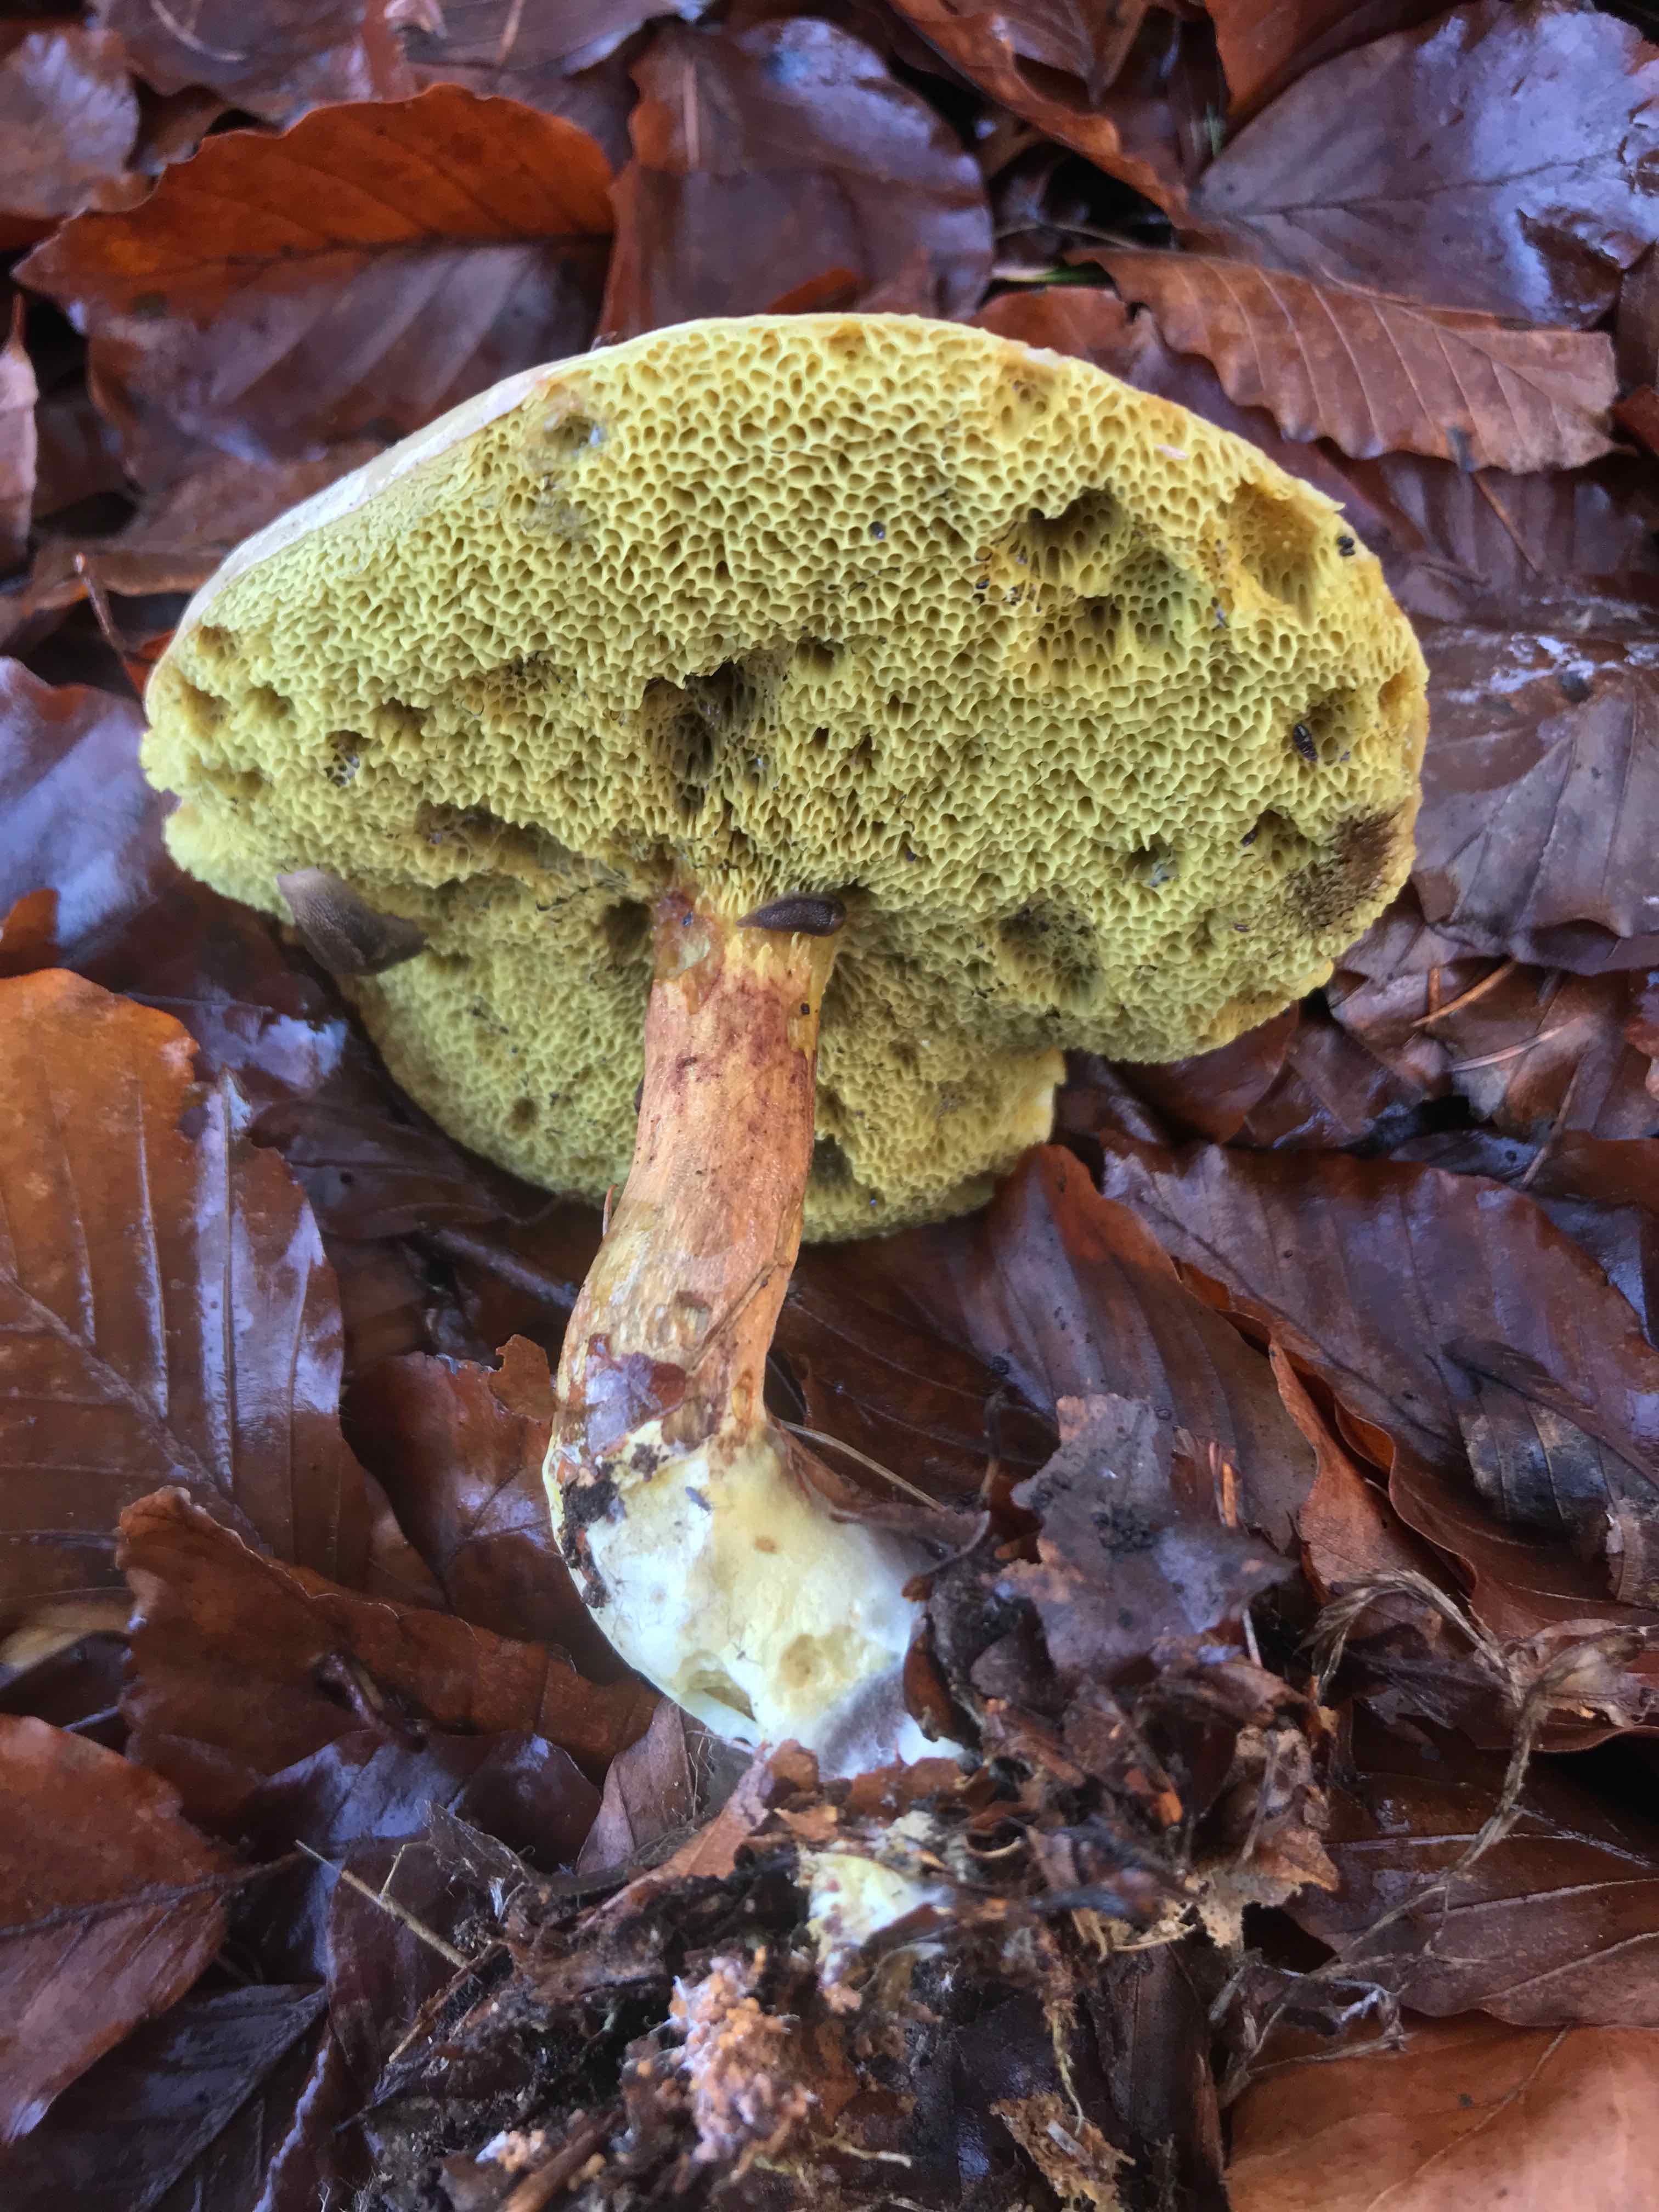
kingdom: Fungi
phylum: Basidiomycota
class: Agaricomycetes
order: Boletales
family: Boletaceae
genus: Xerocomellus
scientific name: Xerocomellus pruinatus
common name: dugget rørhat
